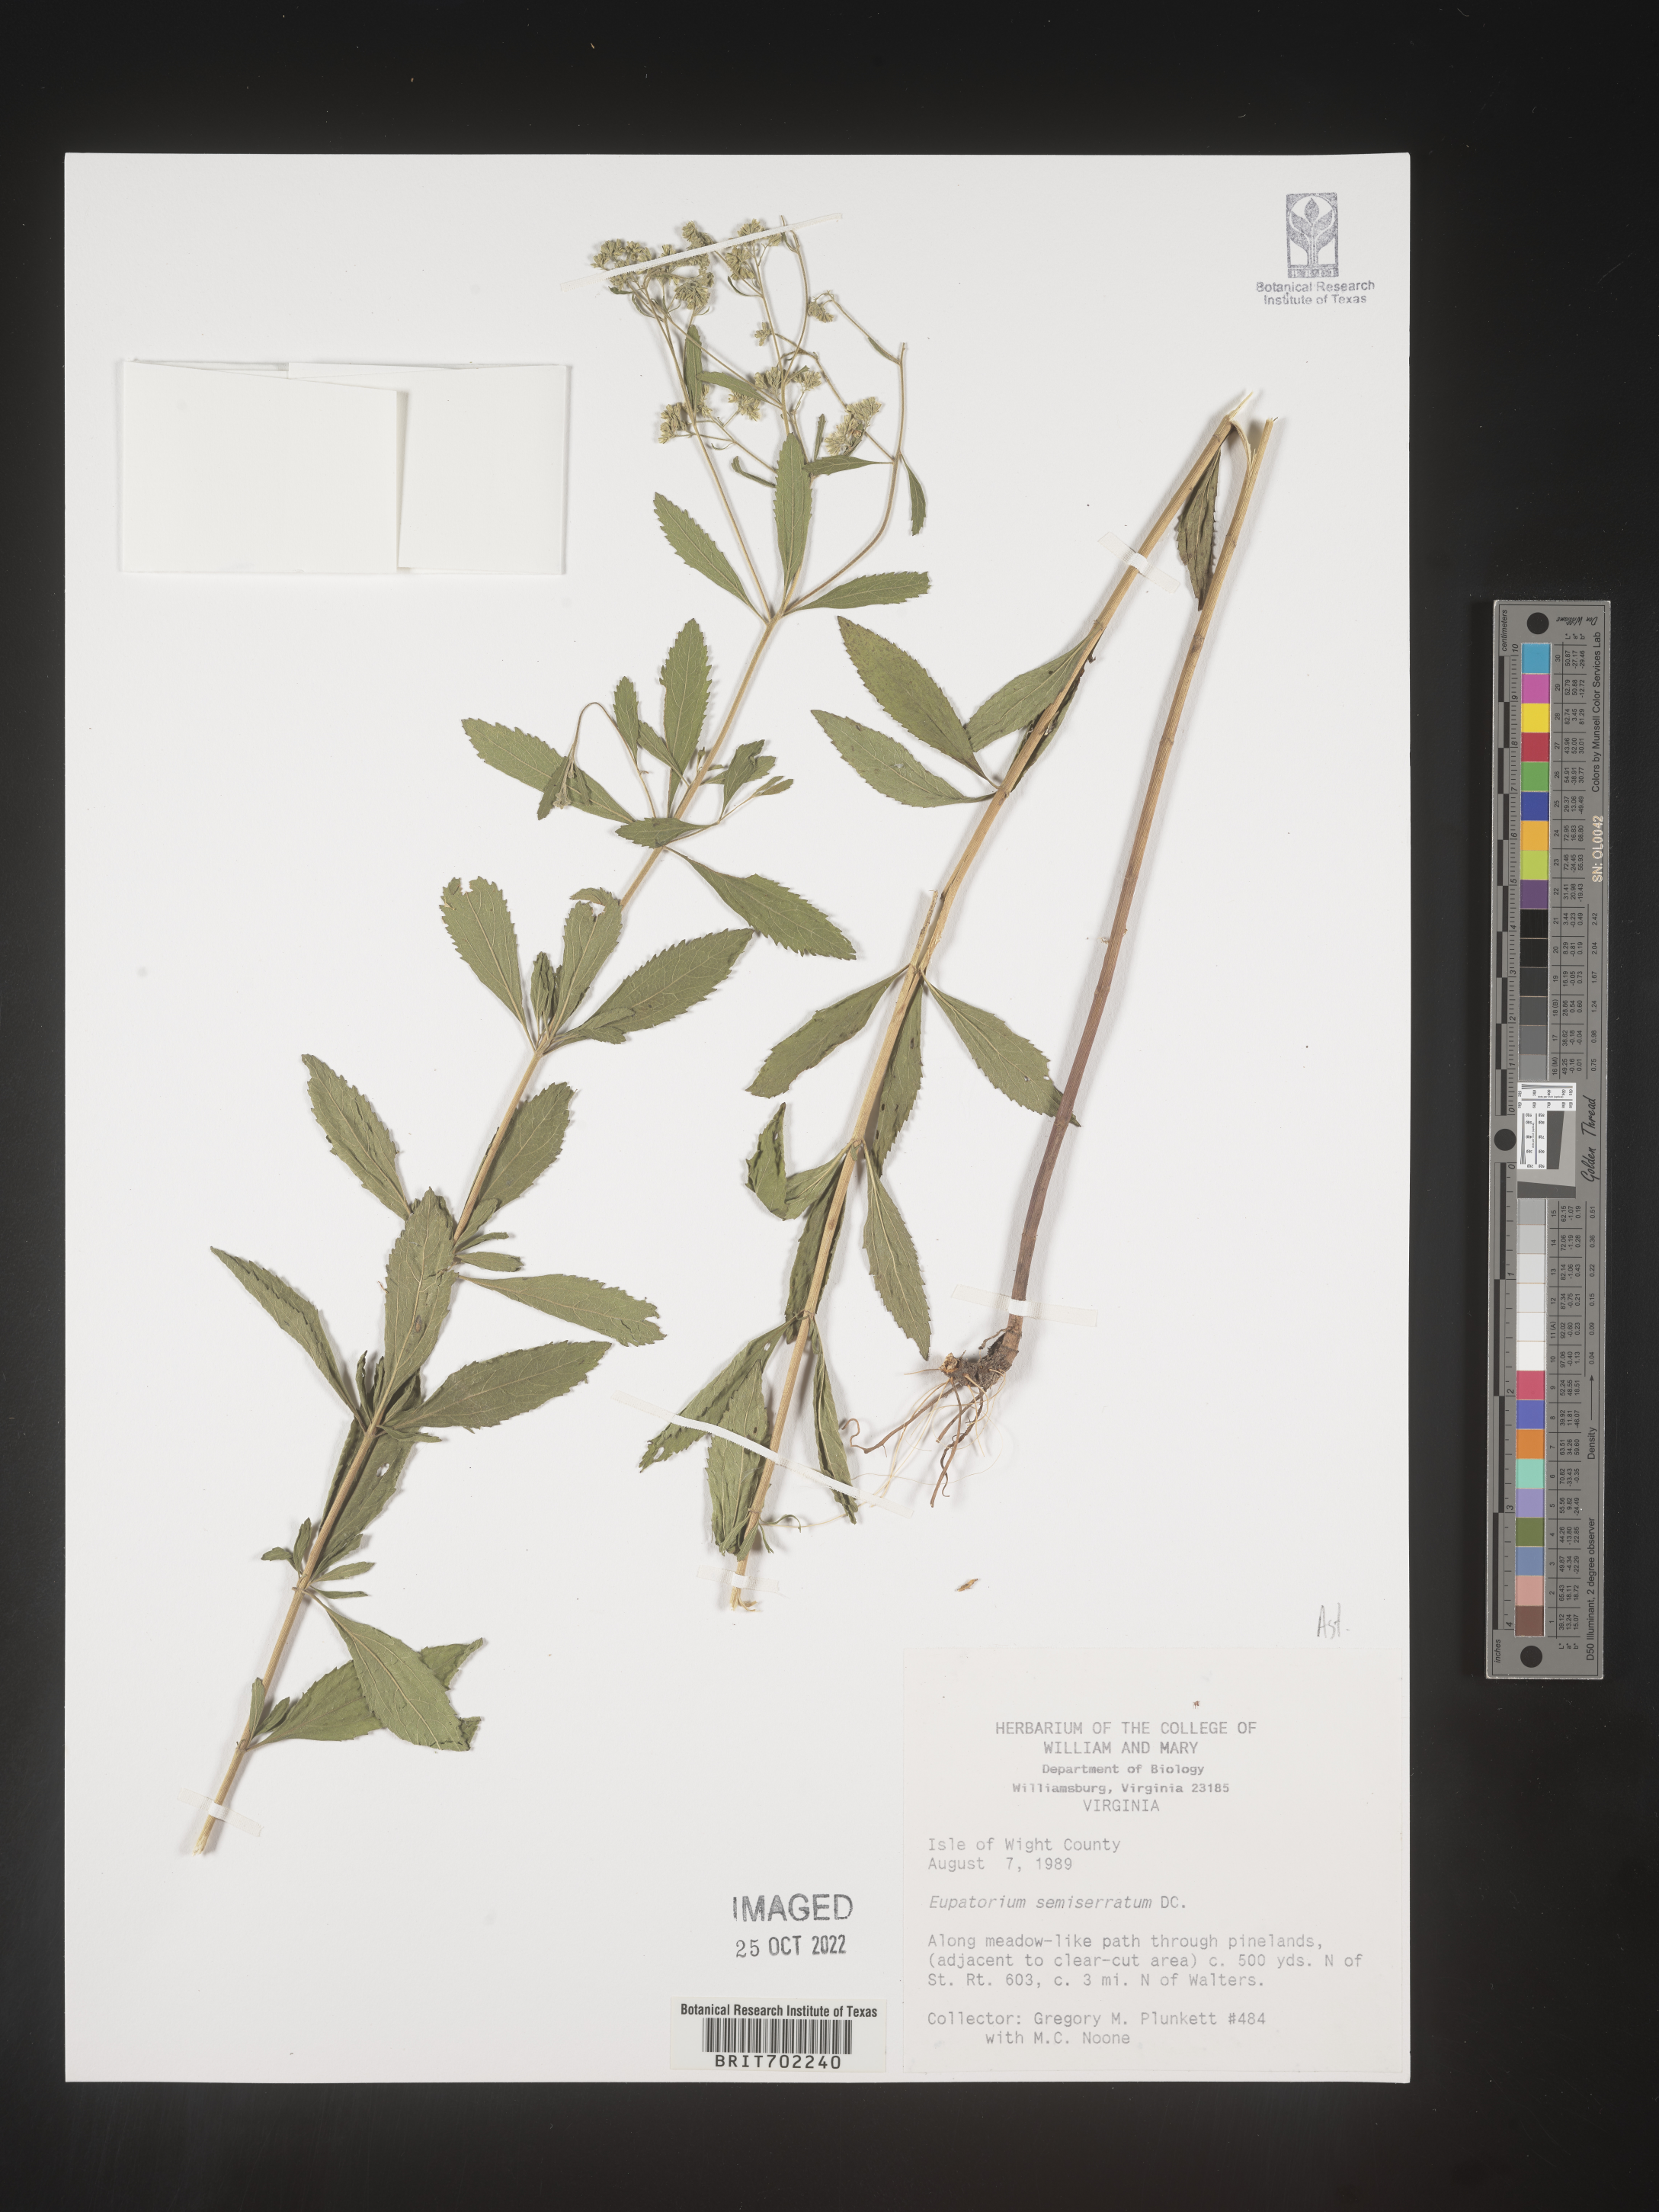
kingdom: Plantae
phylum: Tracheophyta
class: Magnoliopsida
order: Asterales
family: Asteraceae
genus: Eupatorium
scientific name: Eupatorium semiserratum
